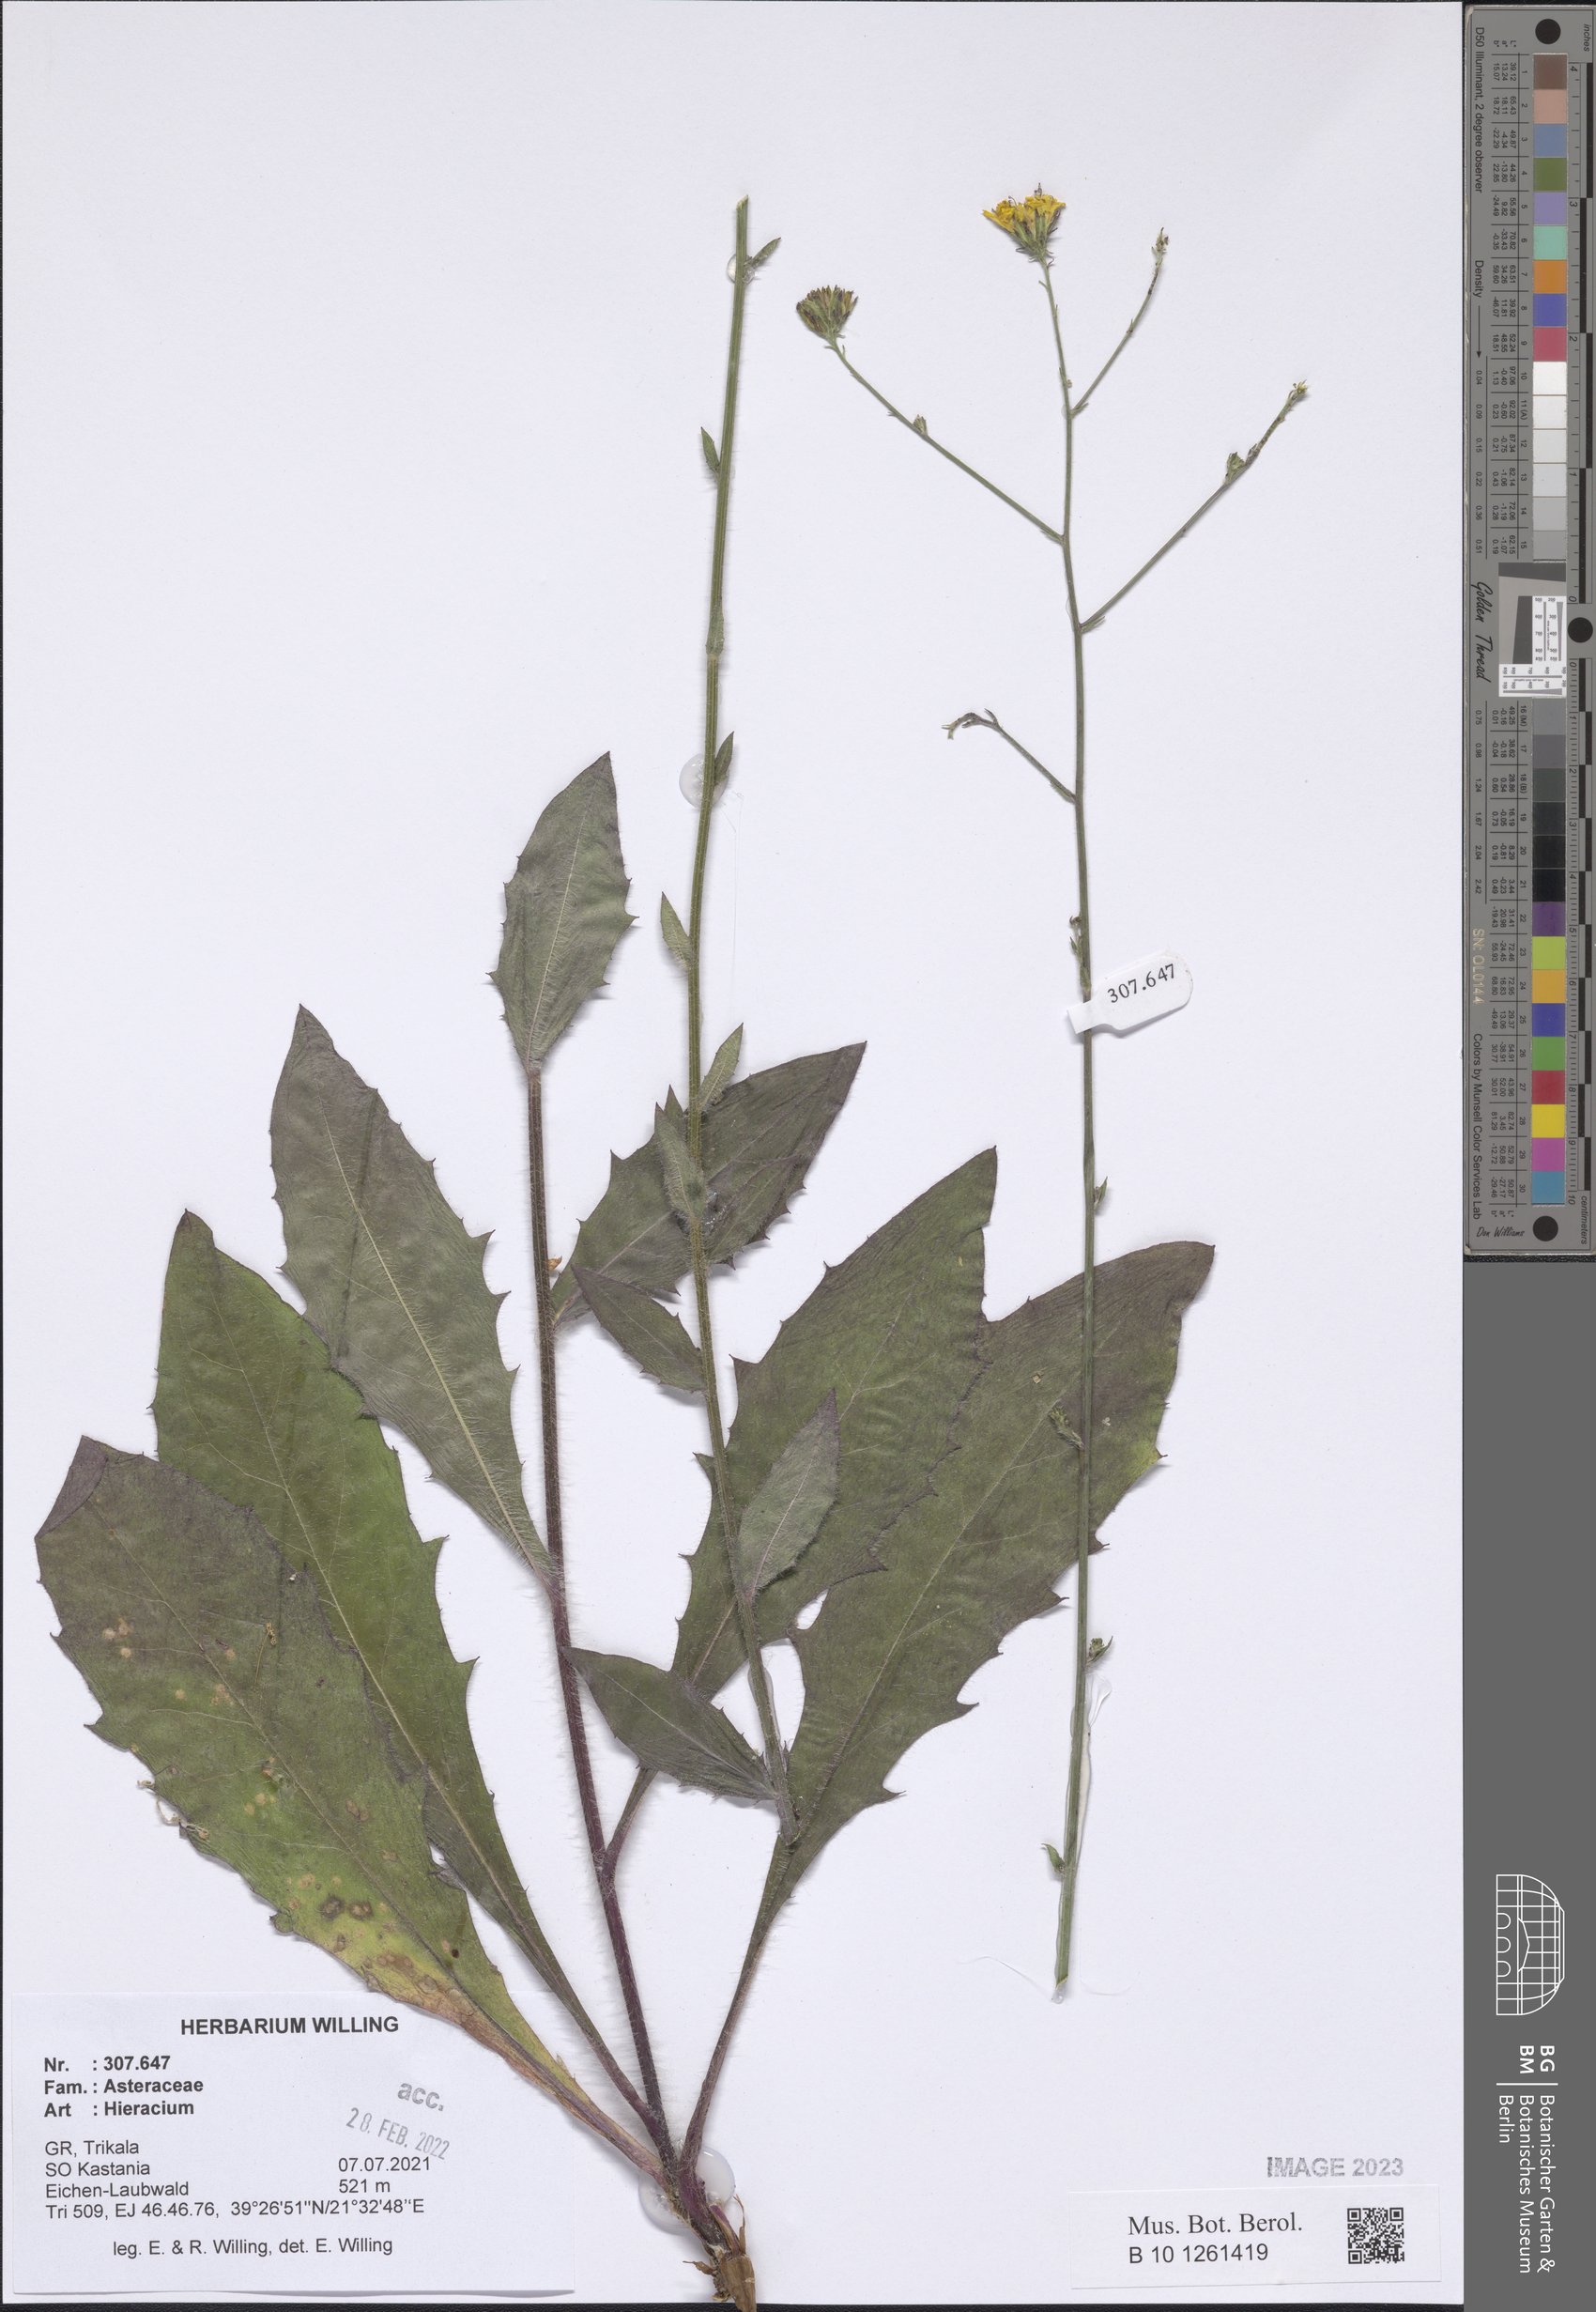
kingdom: Plantae
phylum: Tracheophyta
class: Magnoliopsida
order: Asterales
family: Asteraceae
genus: Hieracium
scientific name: Hieracium
